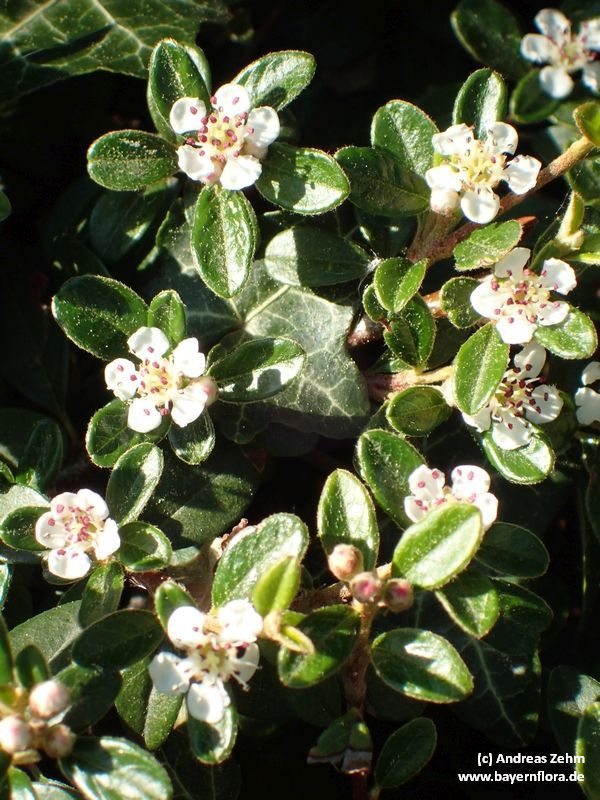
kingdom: Plantae
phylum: Tracheophyta
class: Magnoliopsida
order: Rosales
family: Rosaceae
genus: Cotoneaster
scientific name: Cotoneaster dammeri
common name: Bearberry cotoneaster
